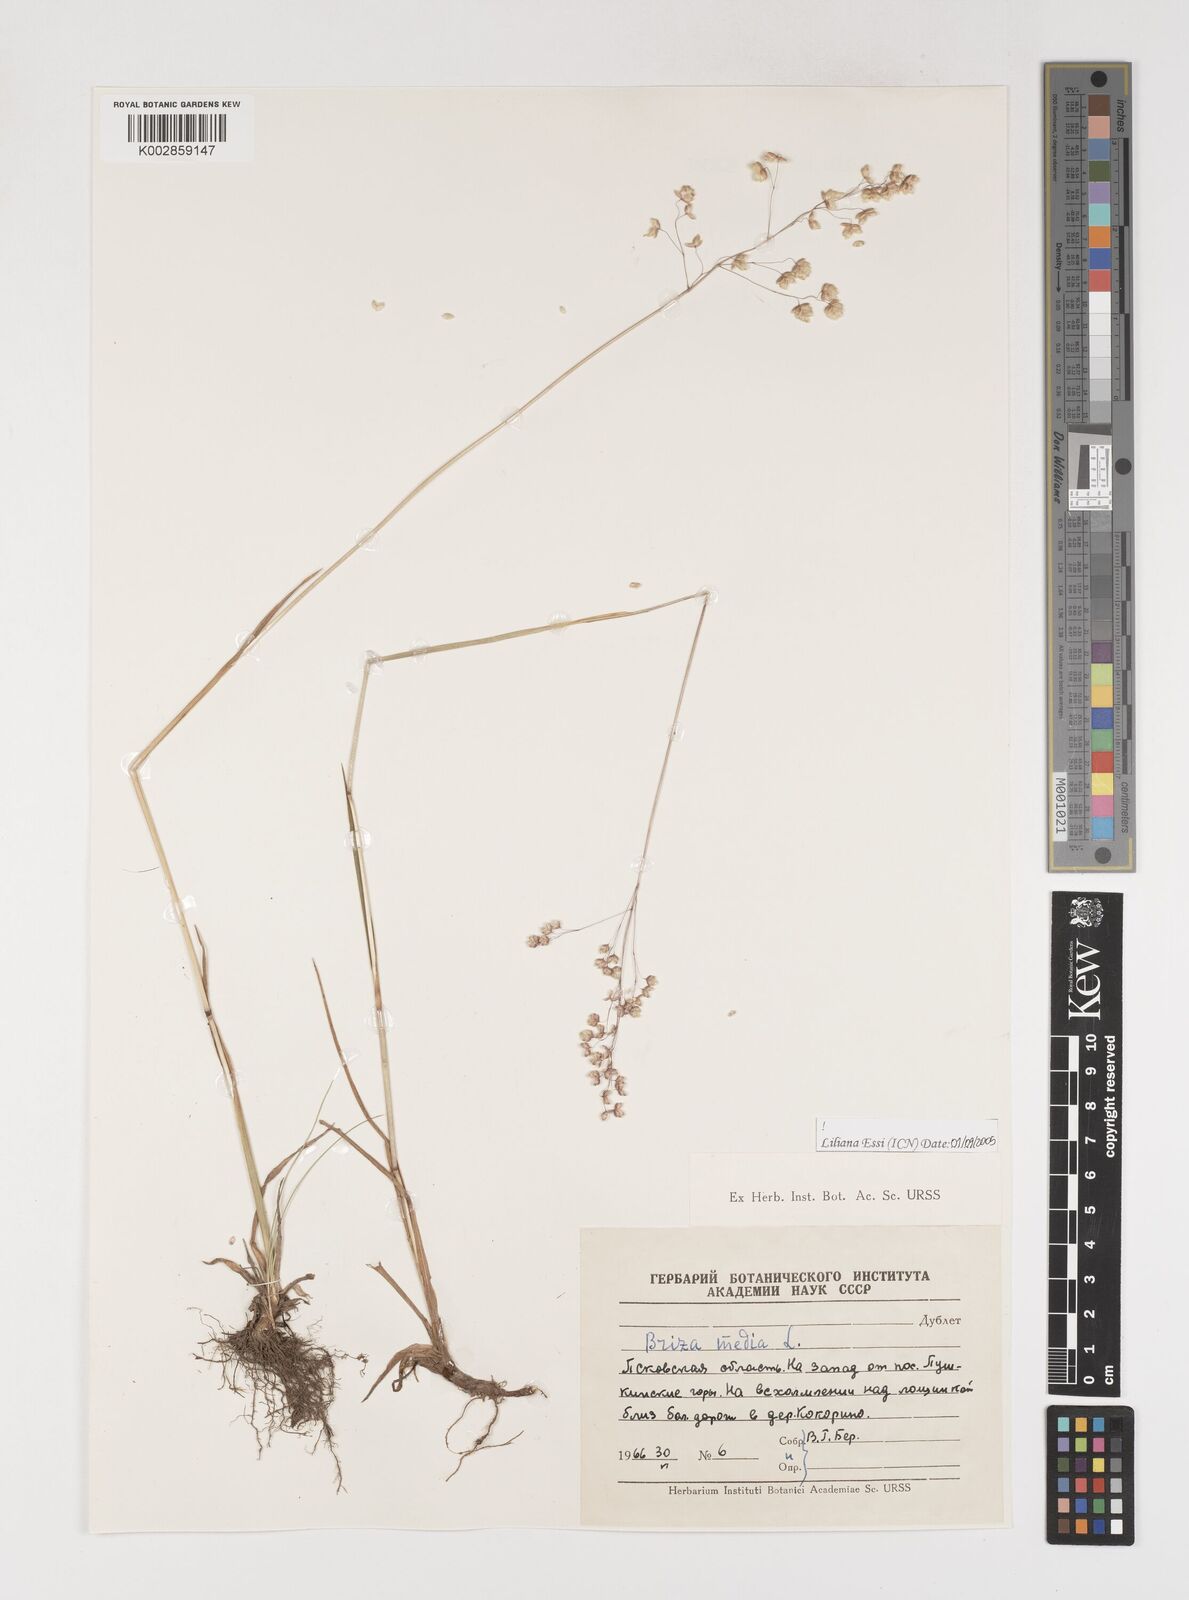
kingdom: Plantae
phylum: Tracheophyta
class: Liliopsida
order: Poales
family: Poaceae
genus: Briza
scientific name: Briza media
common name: Quaking grass
